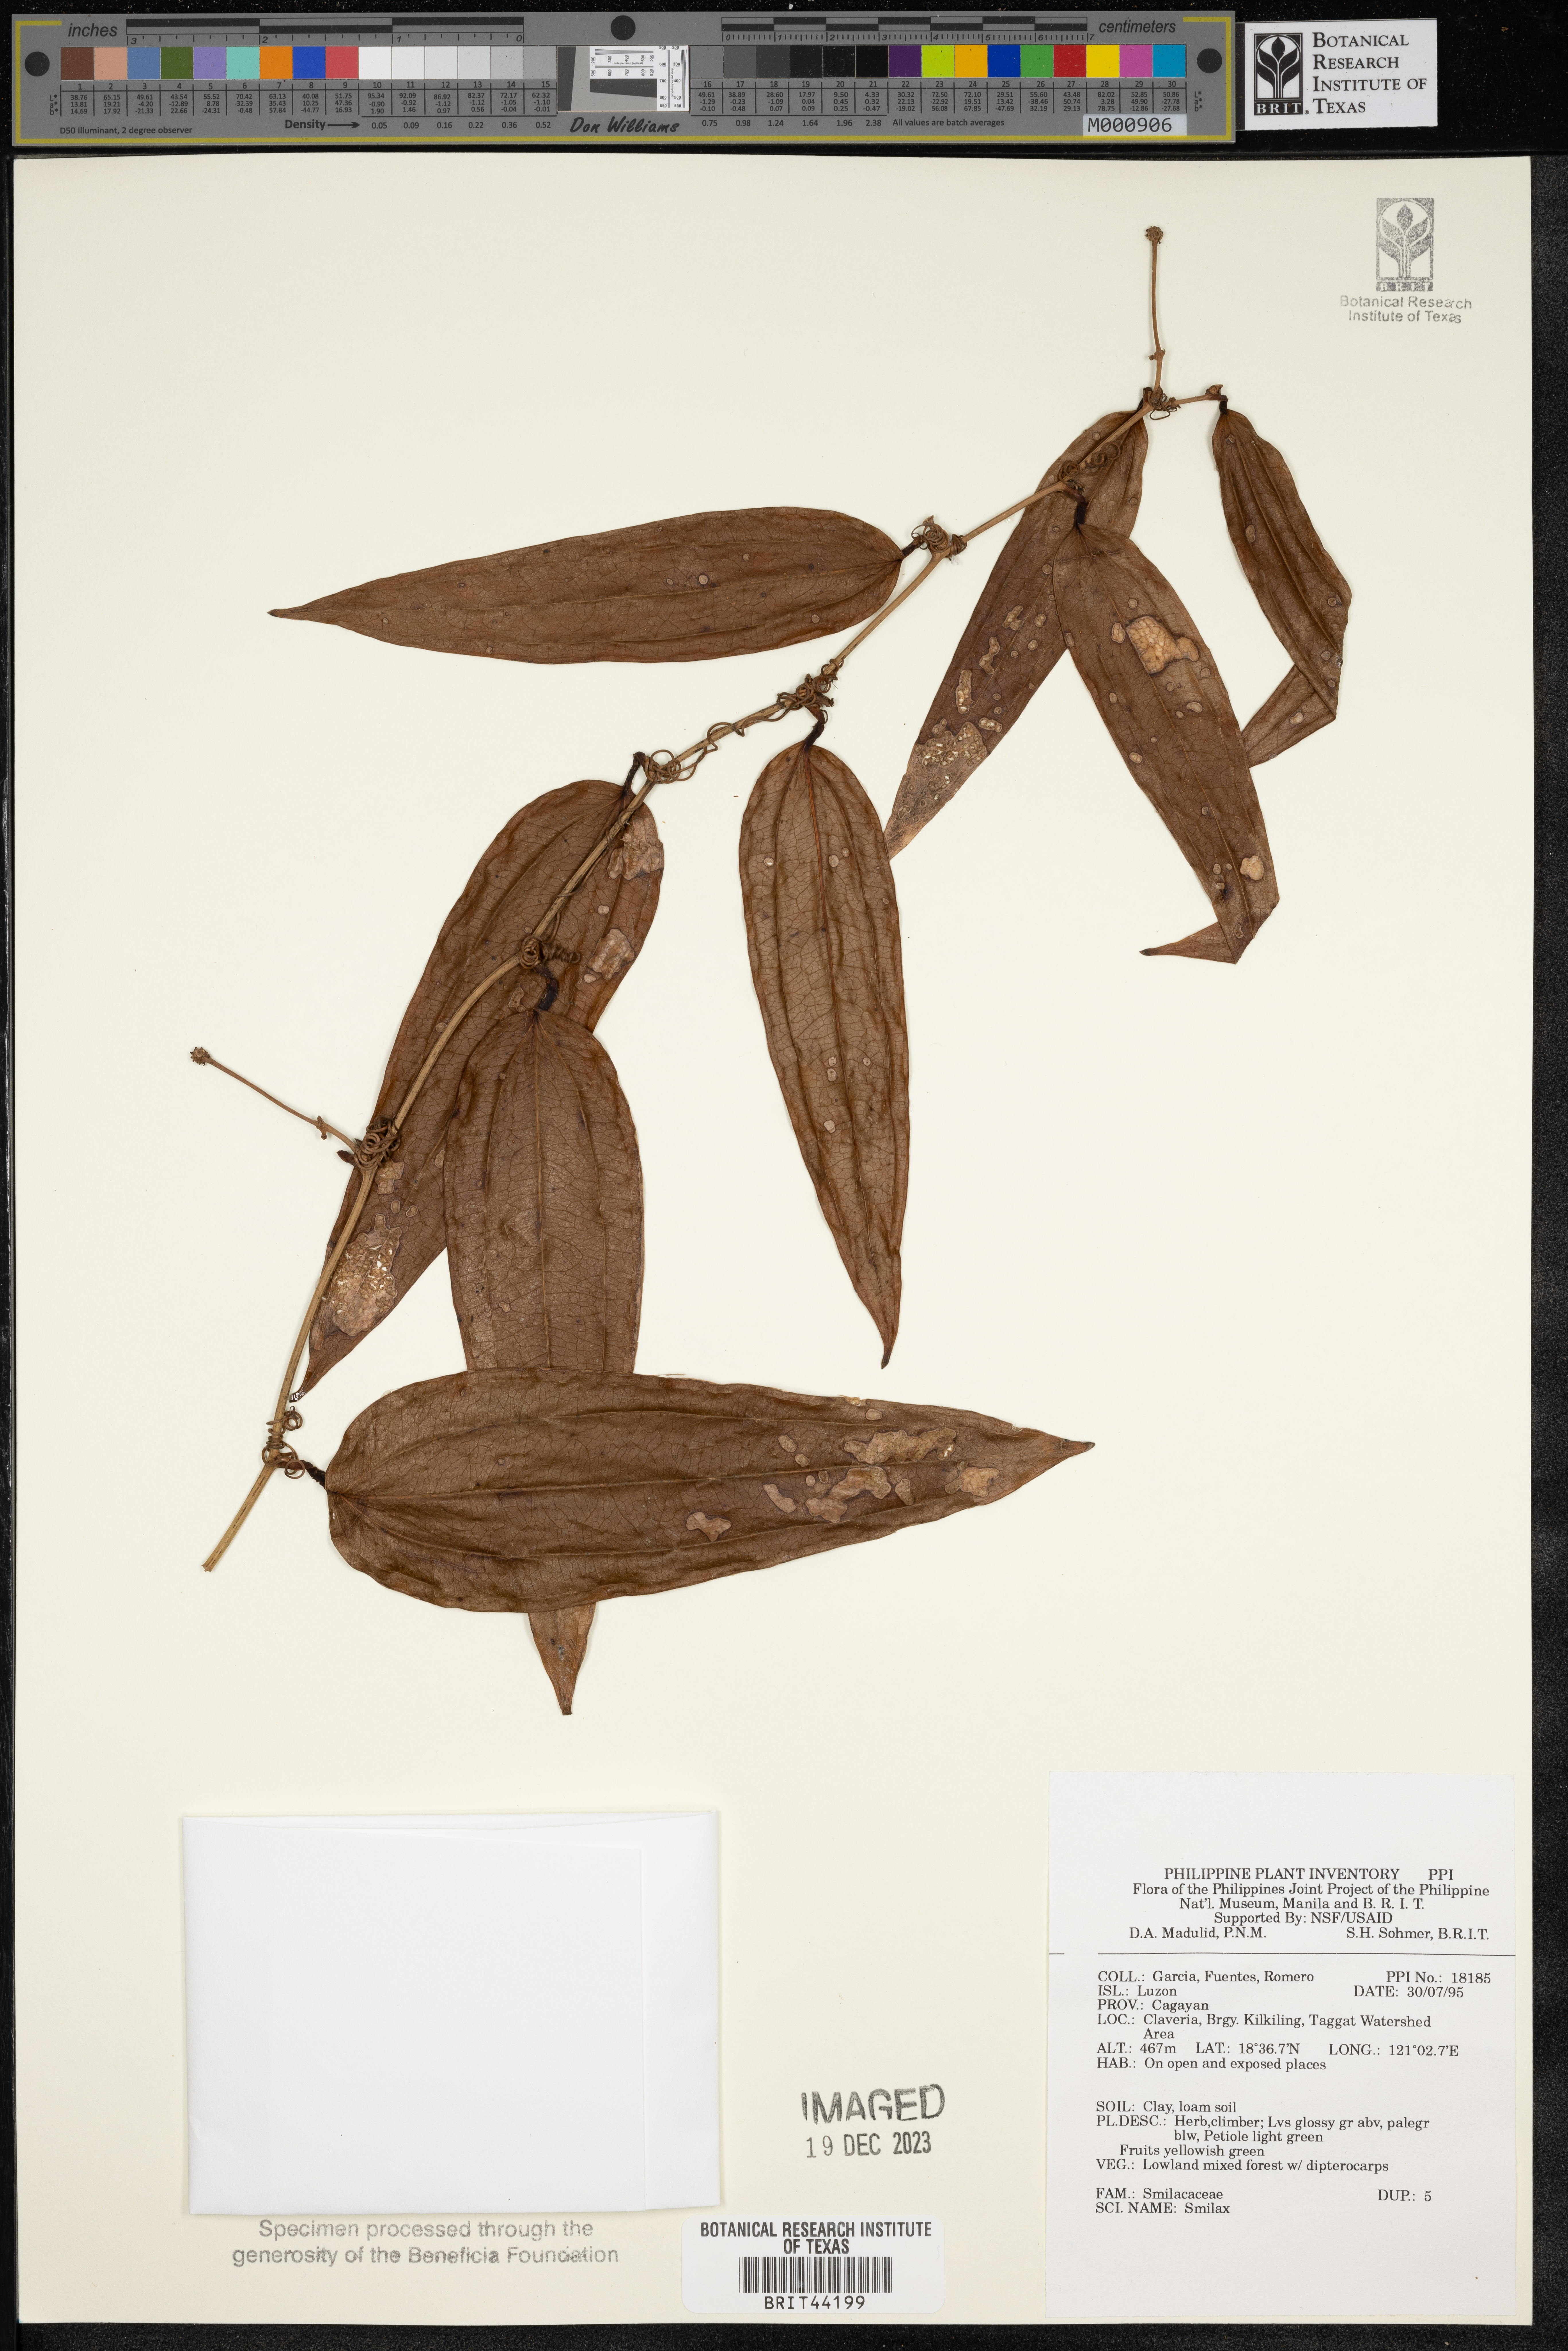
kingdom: Plantae
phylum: Tracheophyta
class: Liliopsida
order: Liliales
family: Smilacaceae
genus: Smilax
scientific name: Smilax
